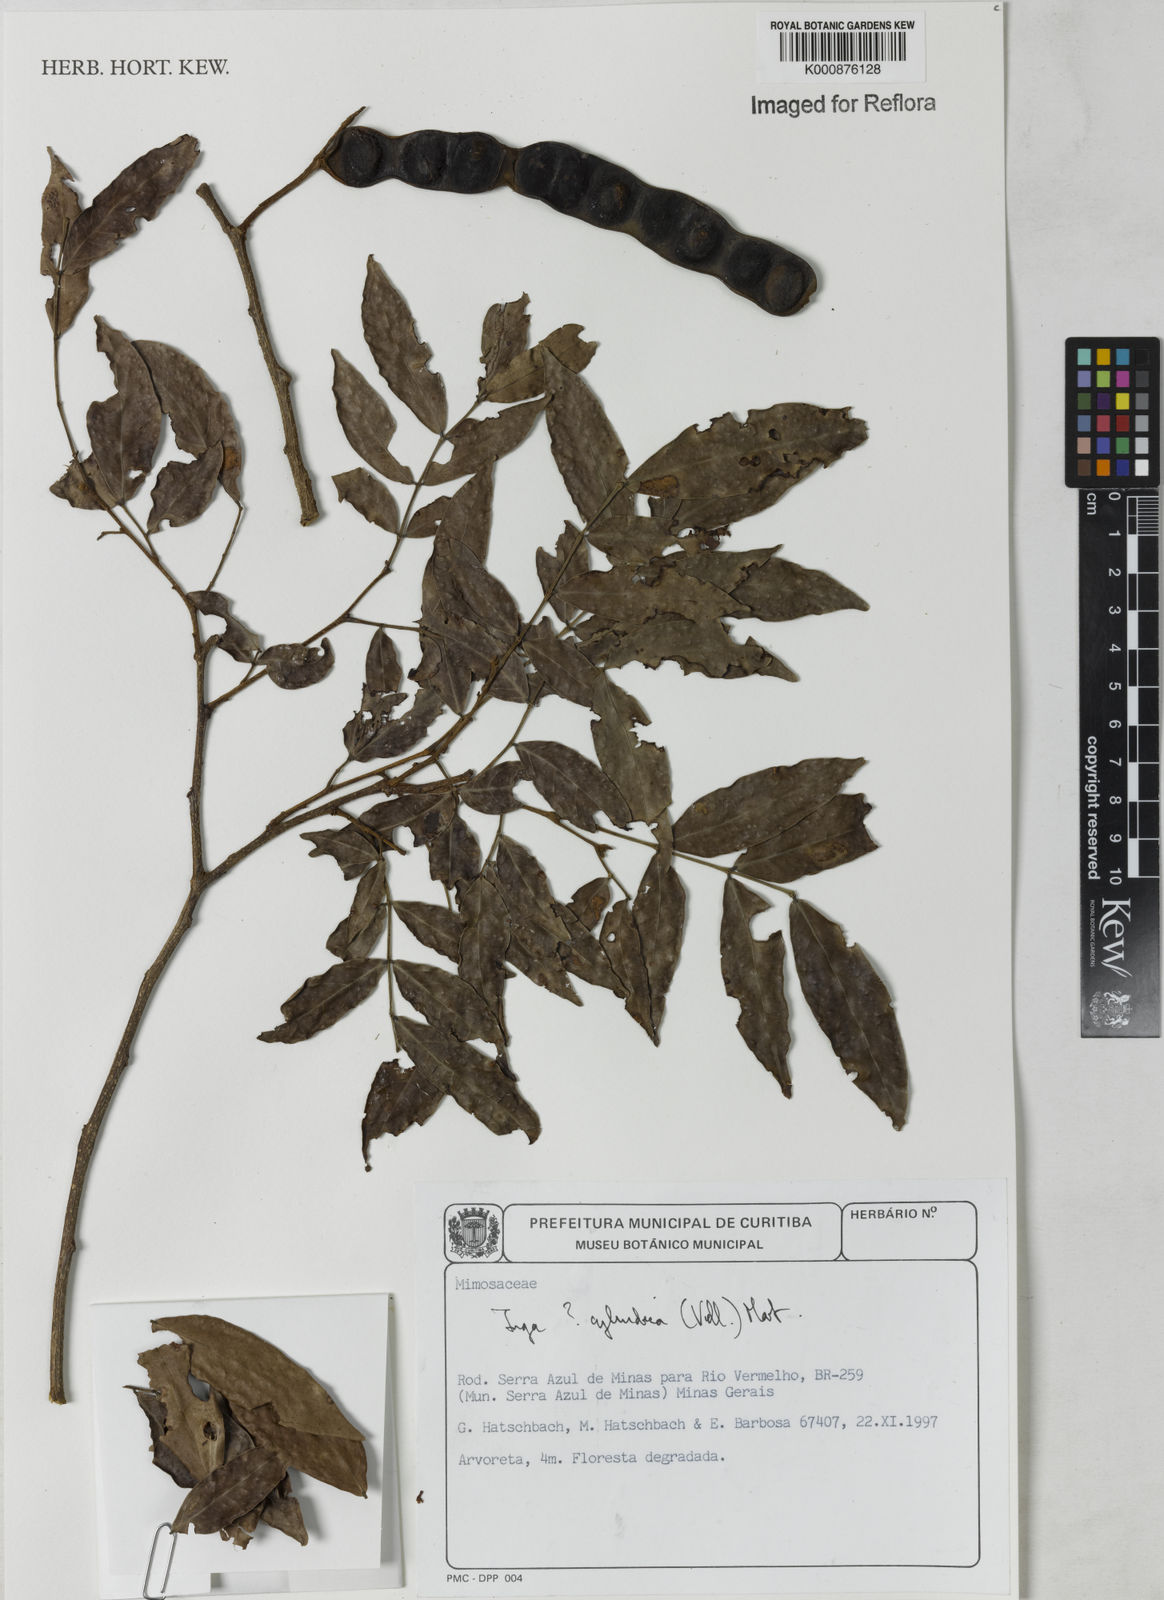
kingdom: Plantae
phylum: Tracheophyta
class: Magnoliopsida
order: Fabales
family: Fabaceae
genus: Inga
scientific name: Inga cylindrica
